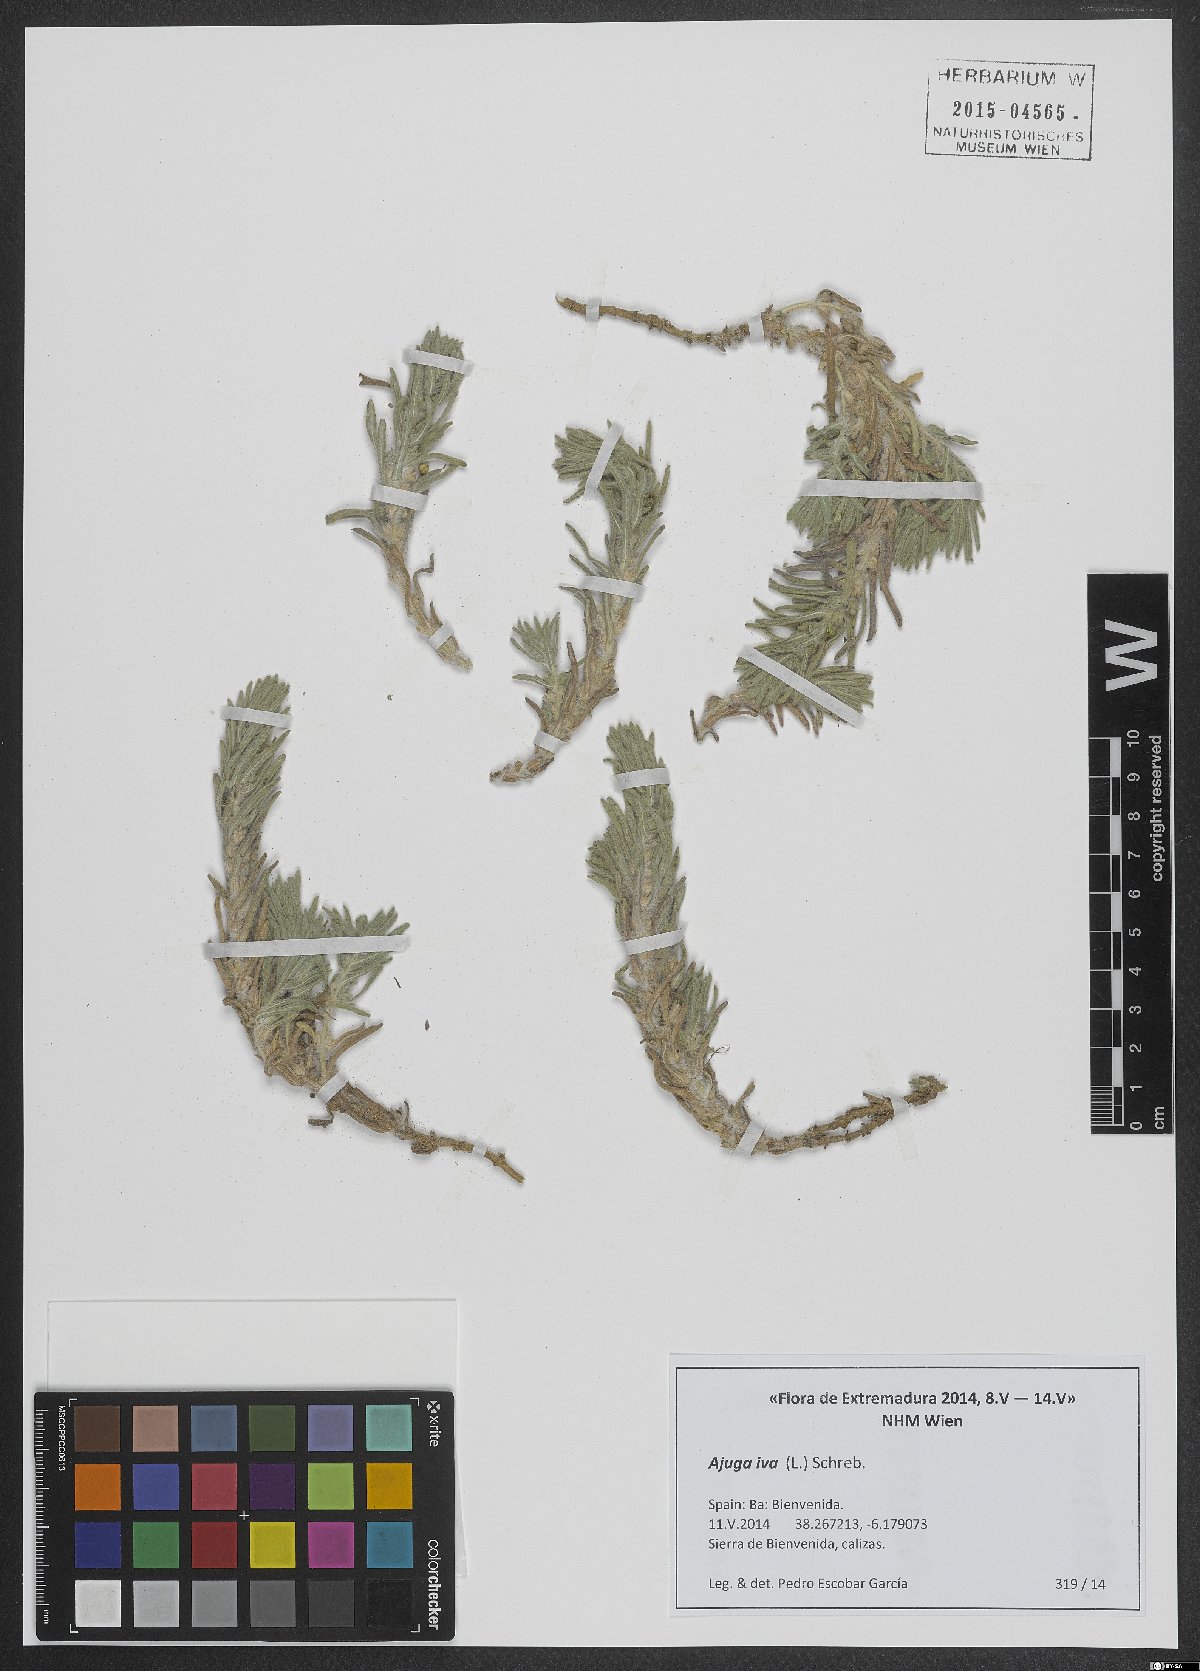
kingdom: Plantae
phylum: Tracheophyta
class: Magnoliopsida
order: Lamiales
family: Lamiaceae
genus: Ajuga
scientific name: Ajuga iva
